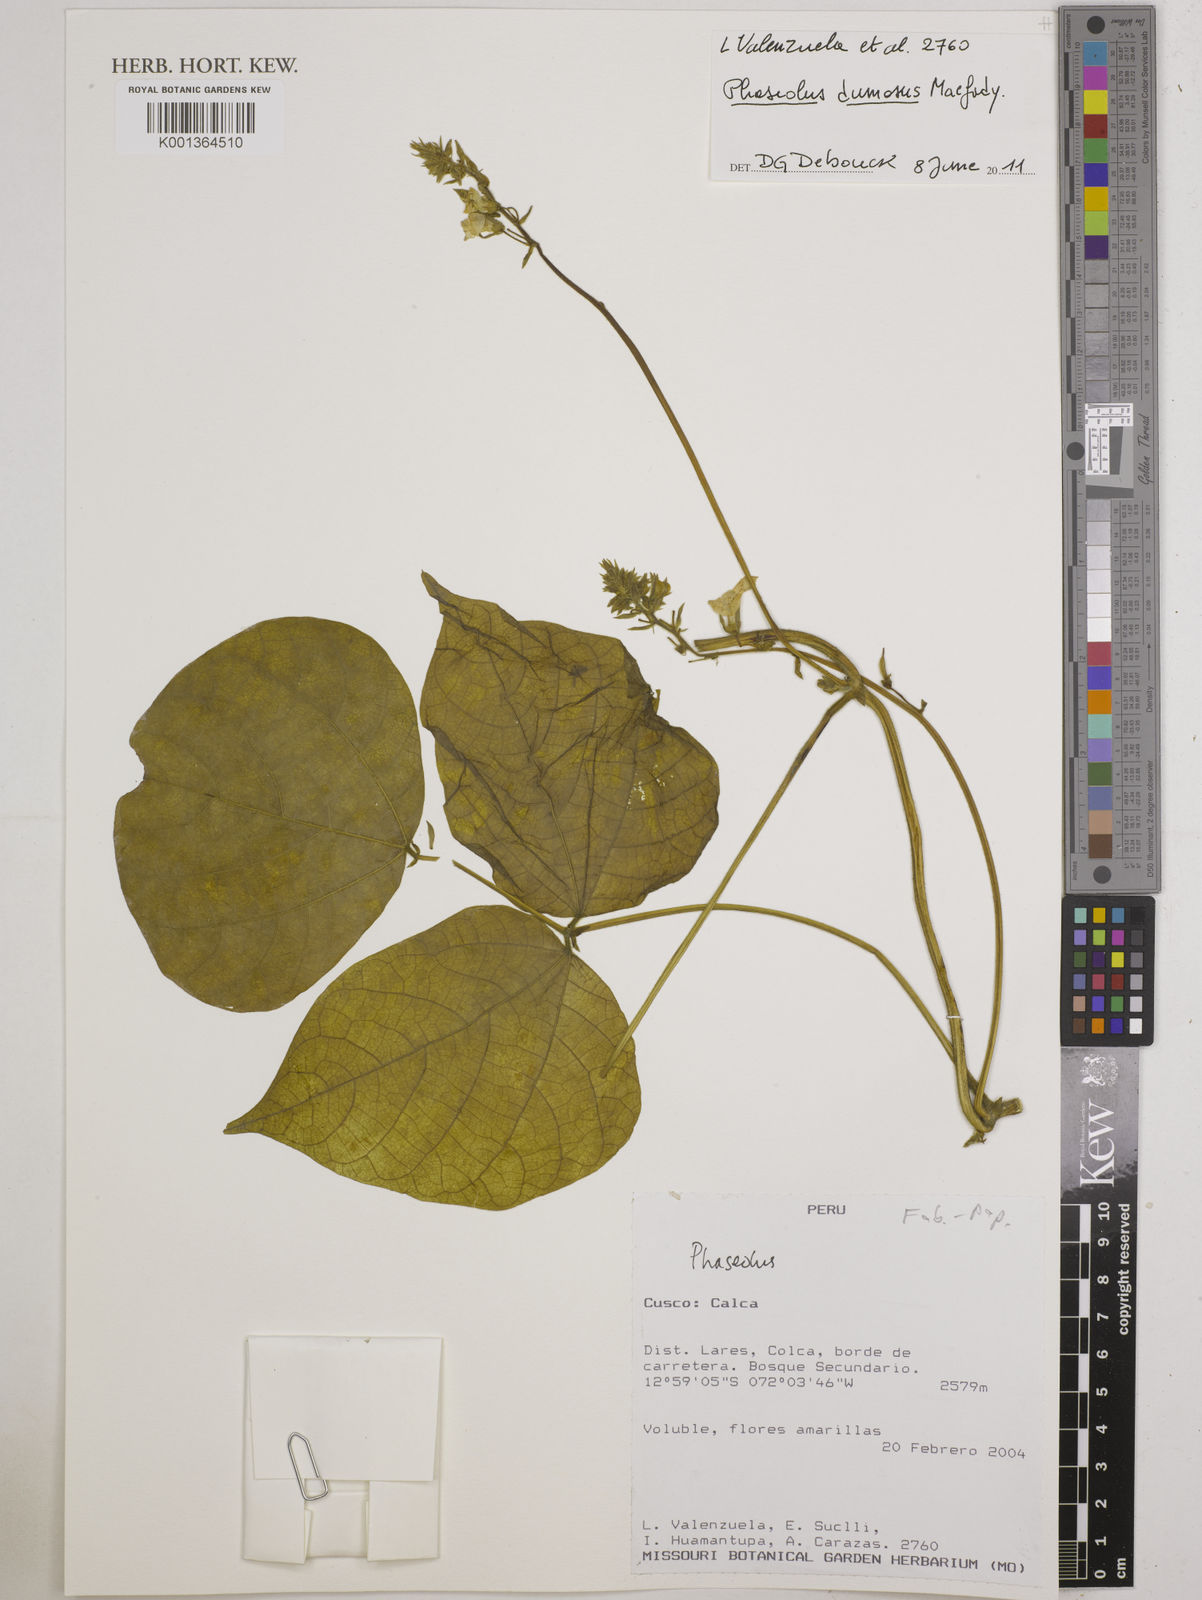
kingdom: Plantae
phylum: Tracheophyta
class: Magnoliopsida
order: Fabales
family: Fabaceae
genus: Phaseolus
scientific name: Phaseolus dumosus
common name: Year bean
